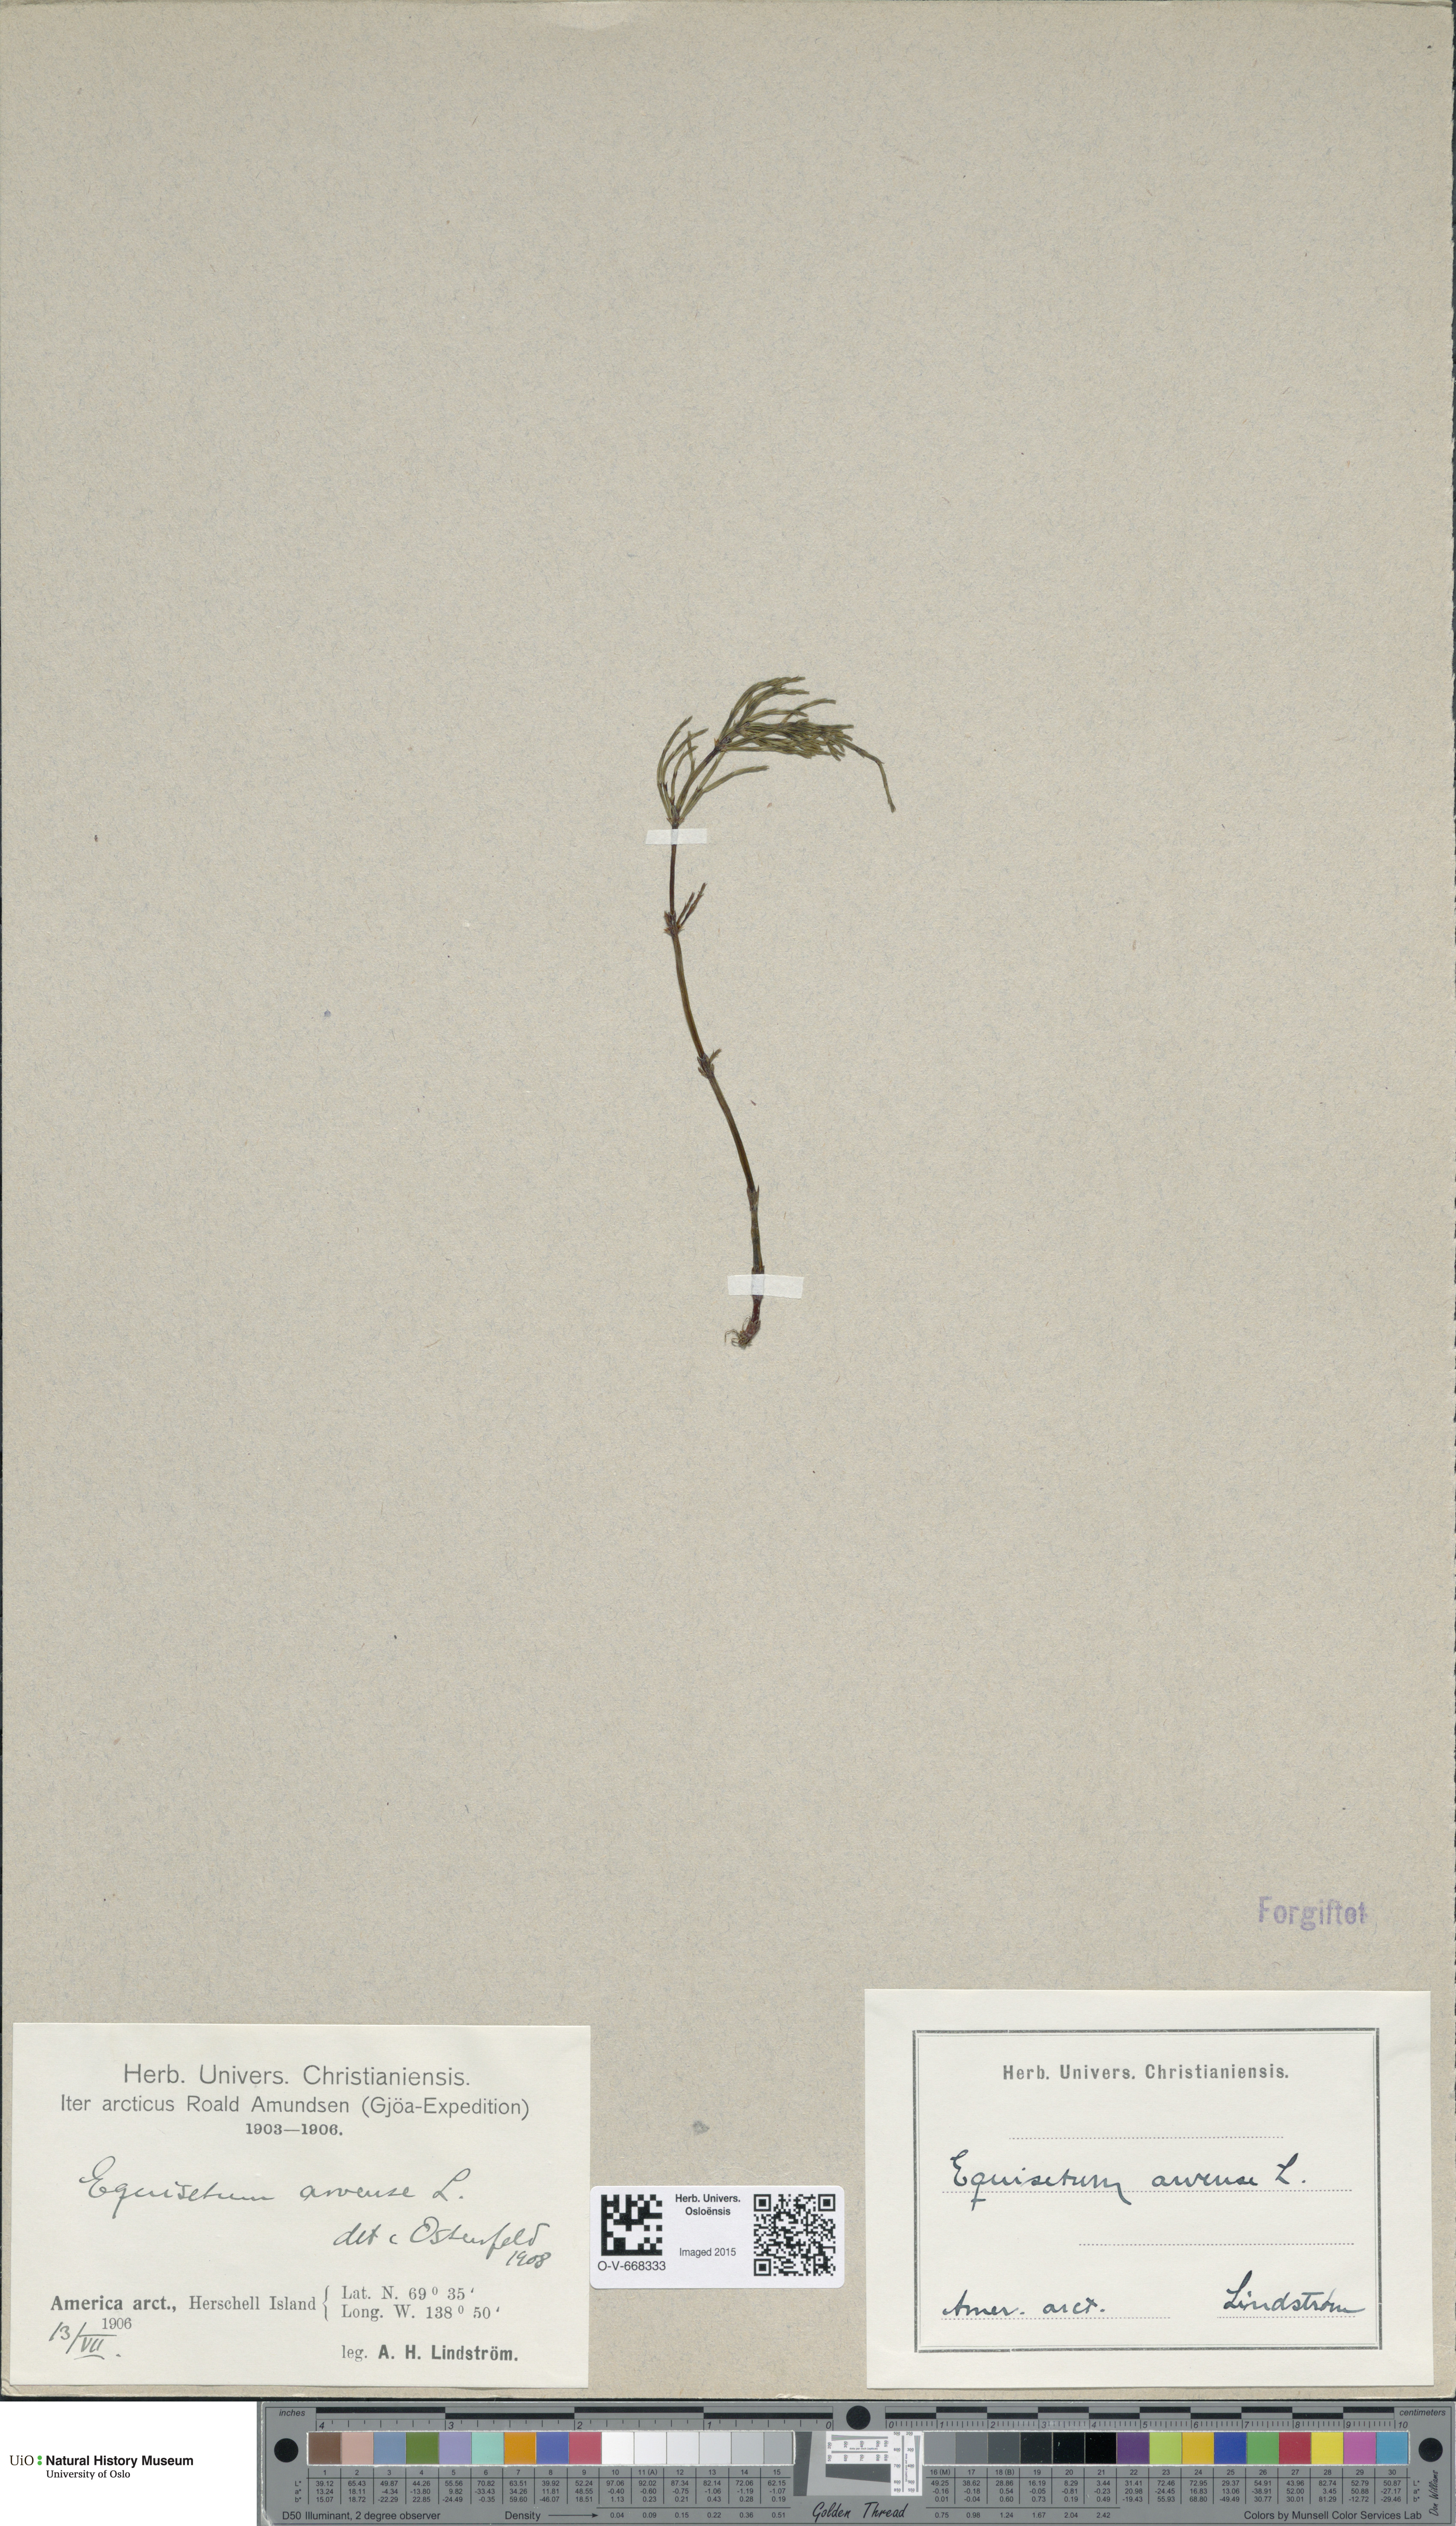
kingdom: Plantae
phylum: Tracheophyta
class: Polypodiopsida
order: Equisetales
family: Equisetaceae
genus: Equisetum
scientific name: Equisetum arvense
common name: Field horsetail
